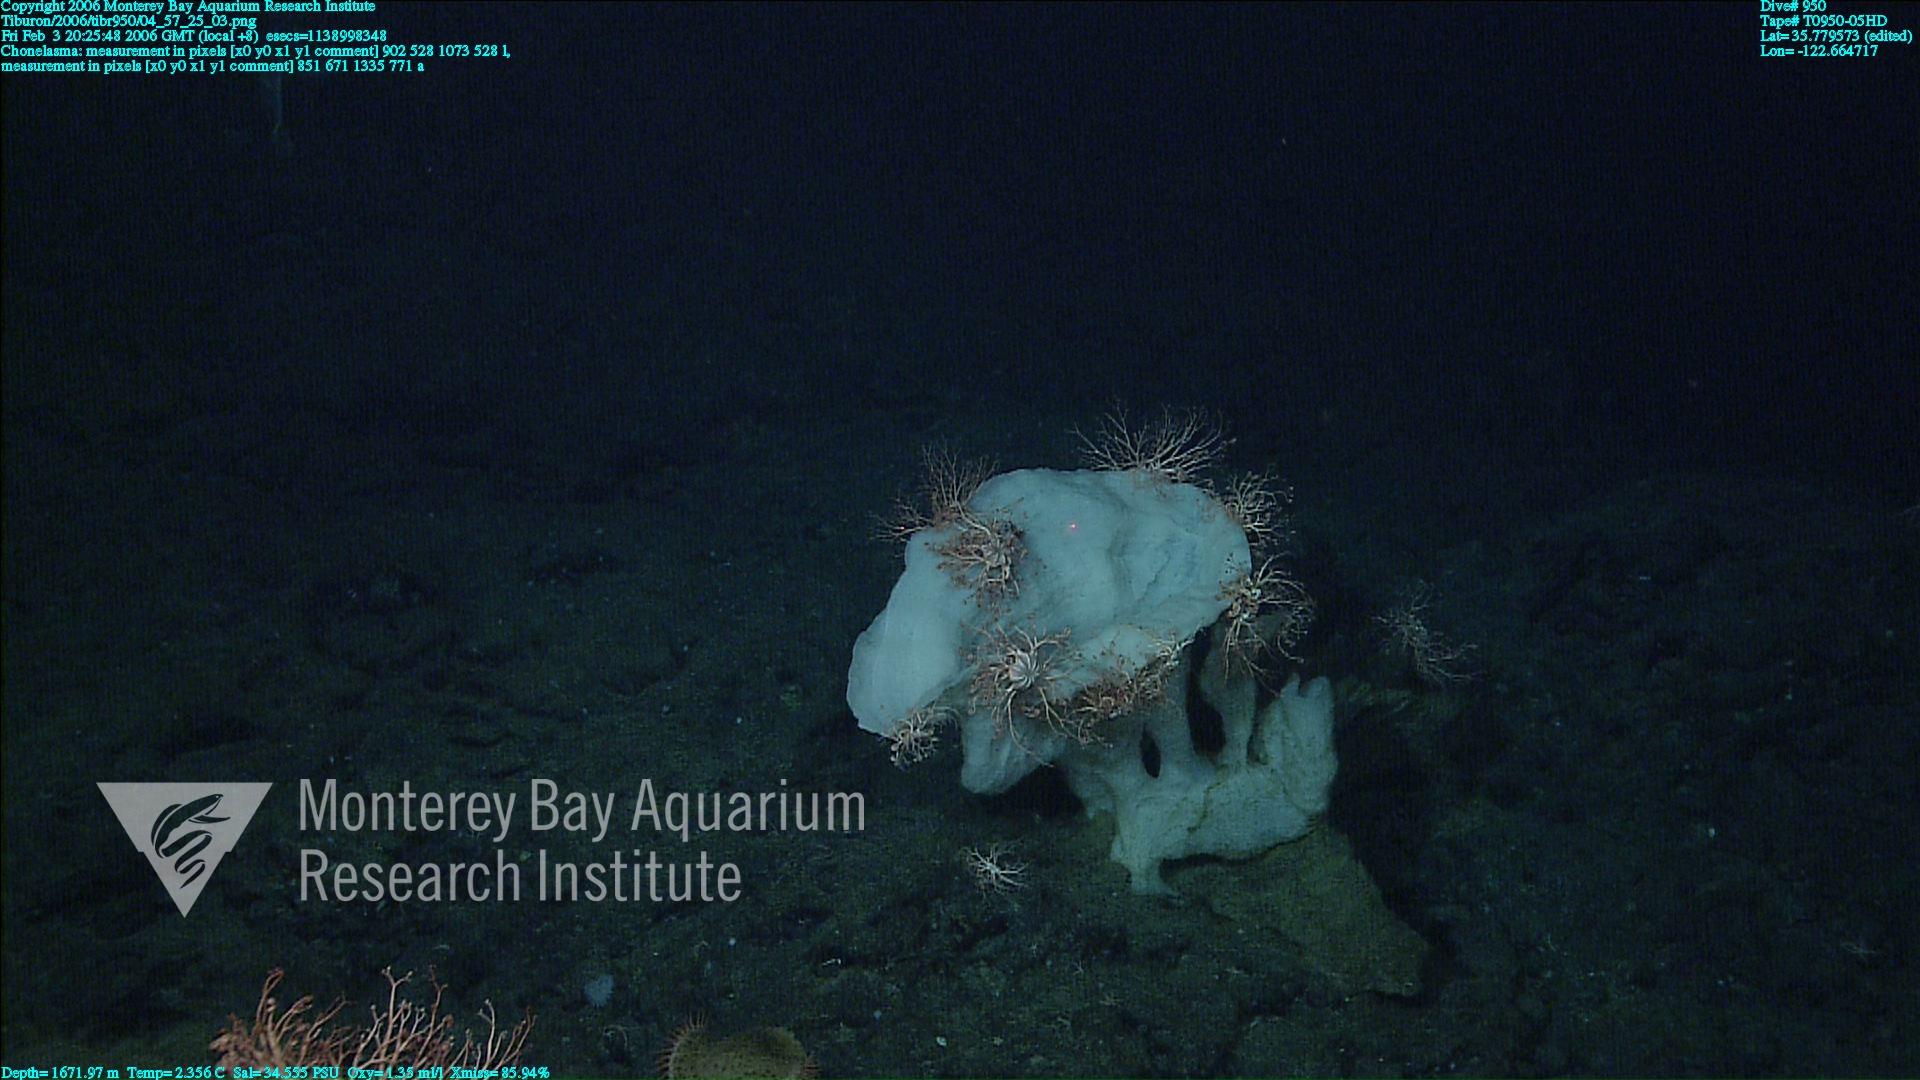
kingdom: Animalia
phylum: Porifera
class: Hexactinellida
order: Sceptrulophora
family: Euretidae
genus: Chonelasma
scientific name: Chonelasma
